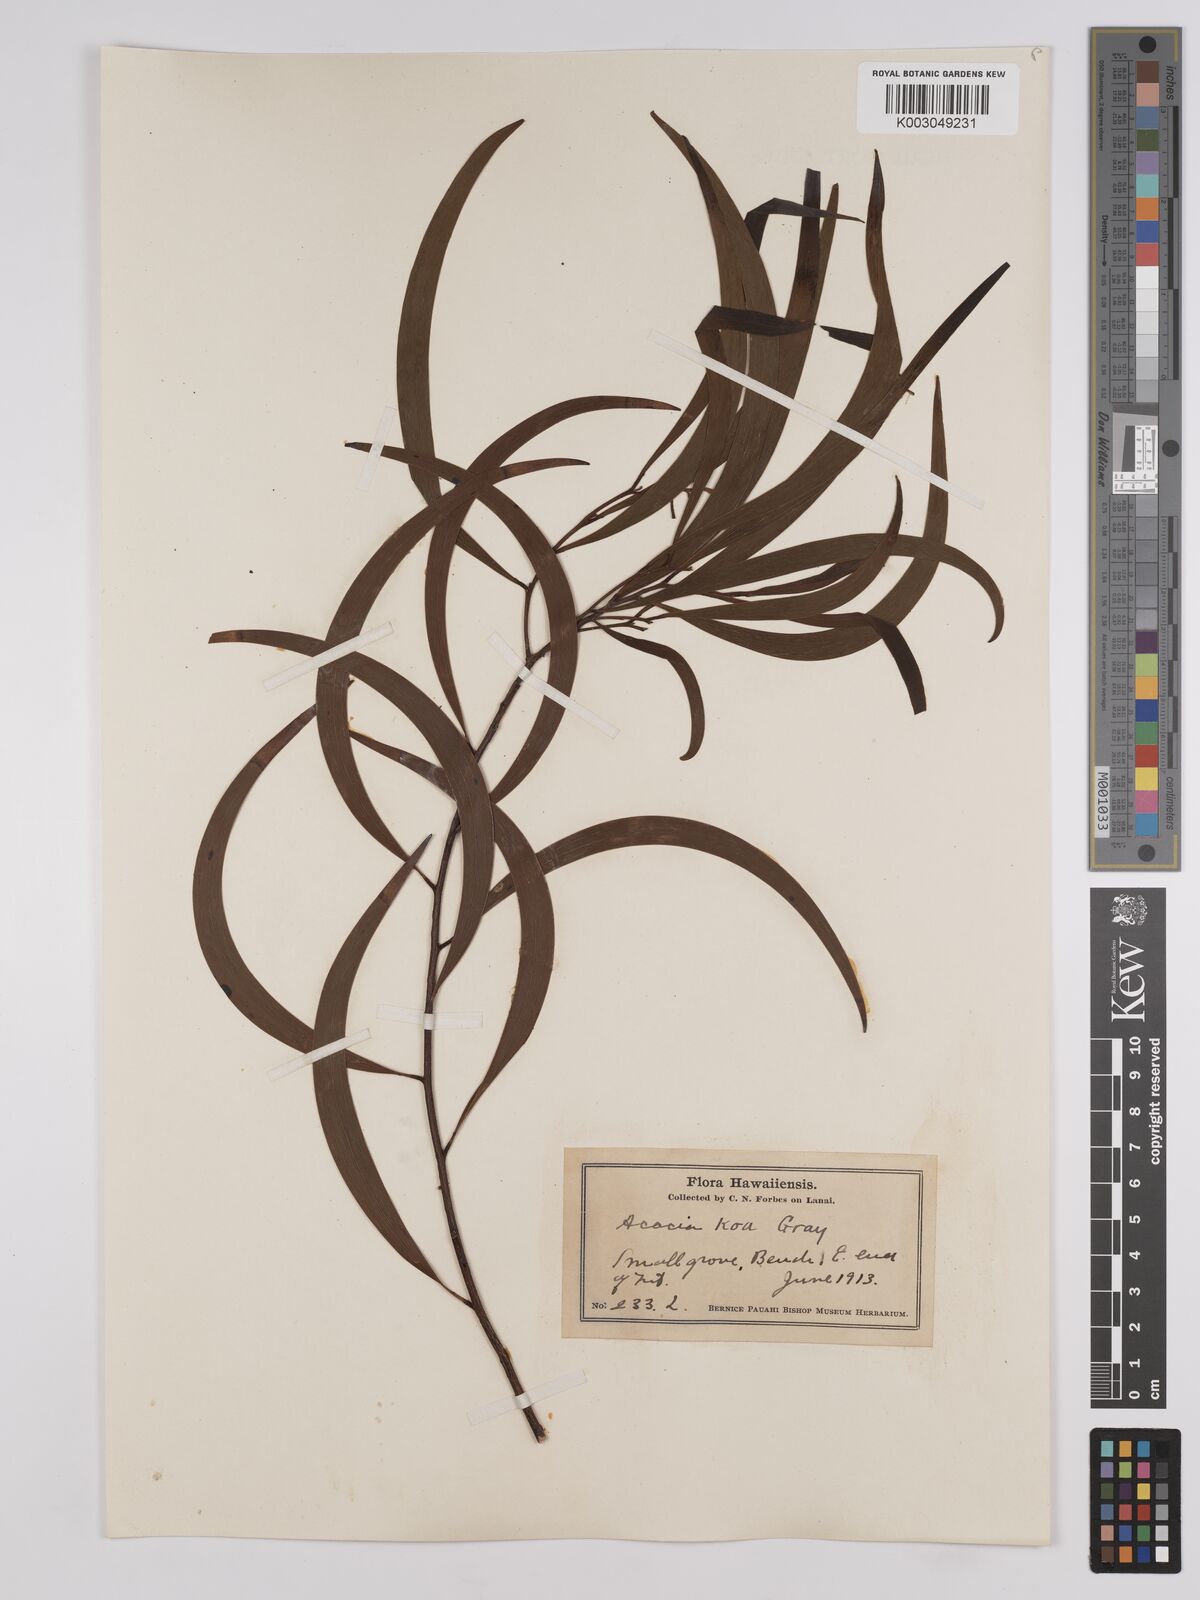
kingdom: Plantae
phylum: Tracheophyta
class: Magnoliopsida
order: Fabales
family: Fabaceae
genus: Acacia
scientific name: Acacia koa
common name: Gray koa
